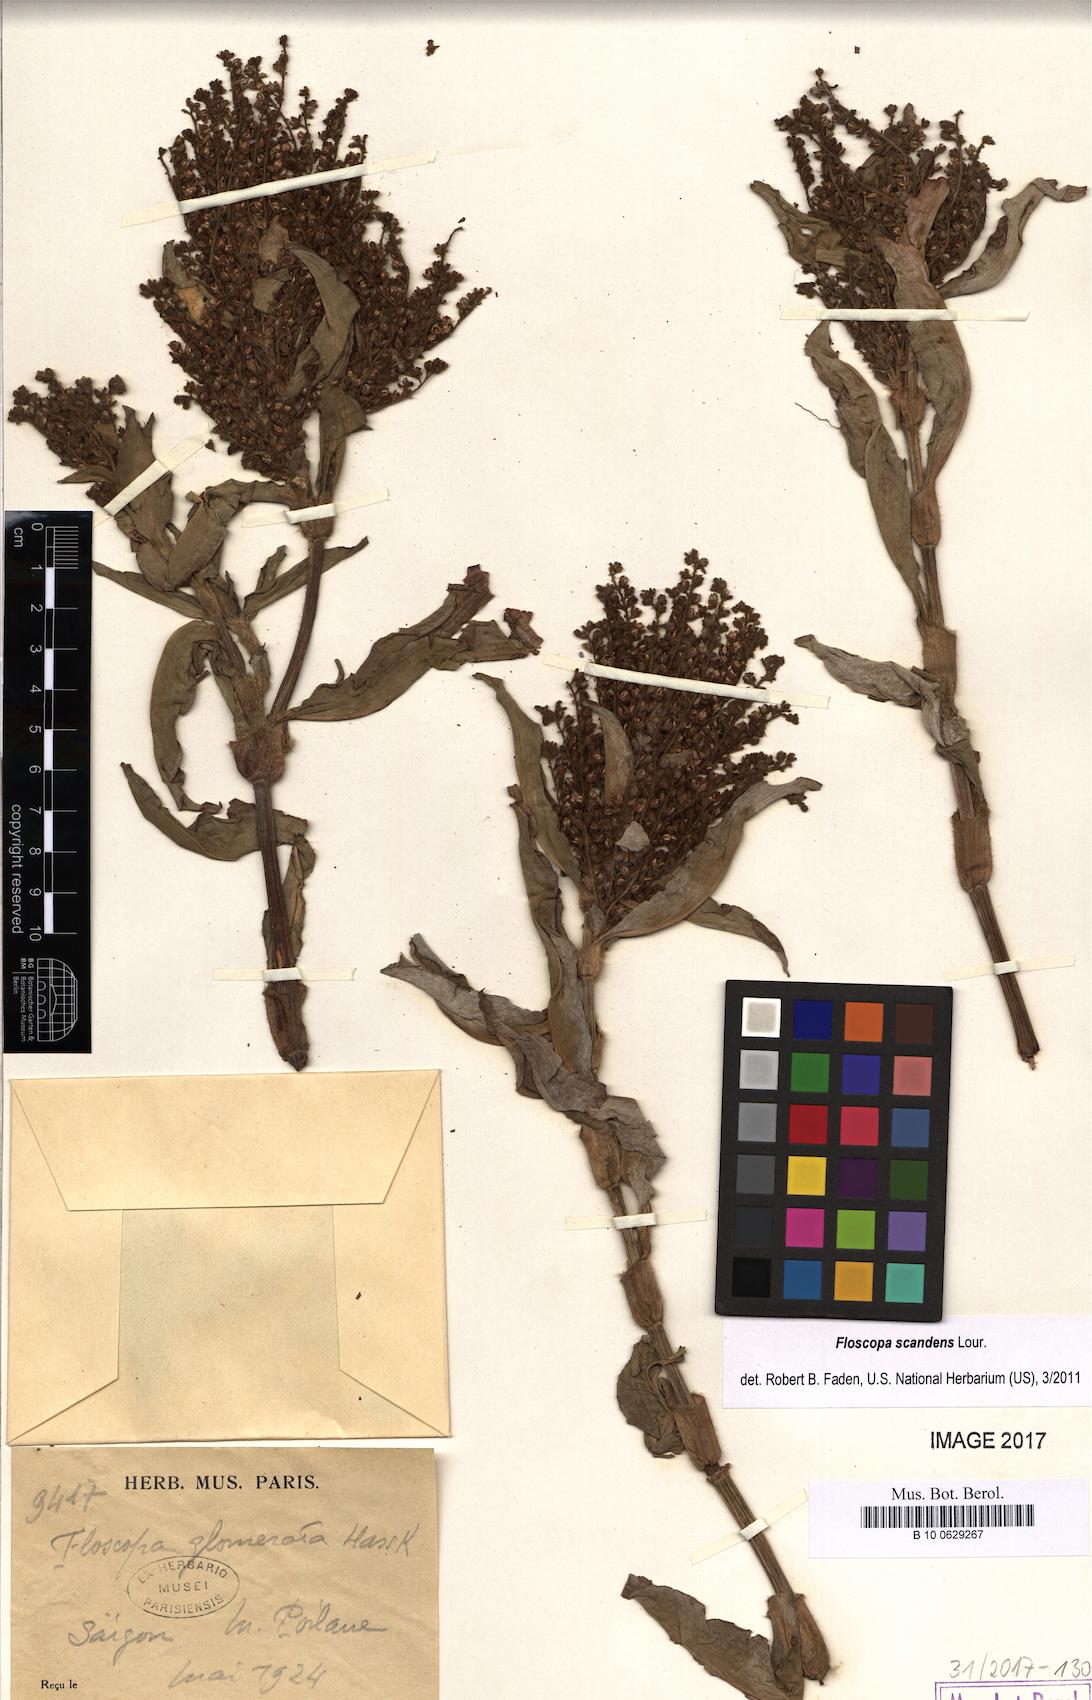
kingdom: Plantae
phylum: Tracheophyta
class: Liliopsida
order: Commelinales
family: Commelinaceae
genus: Floscopa
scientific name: Floscopa scandens
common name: Climbing flower cup
